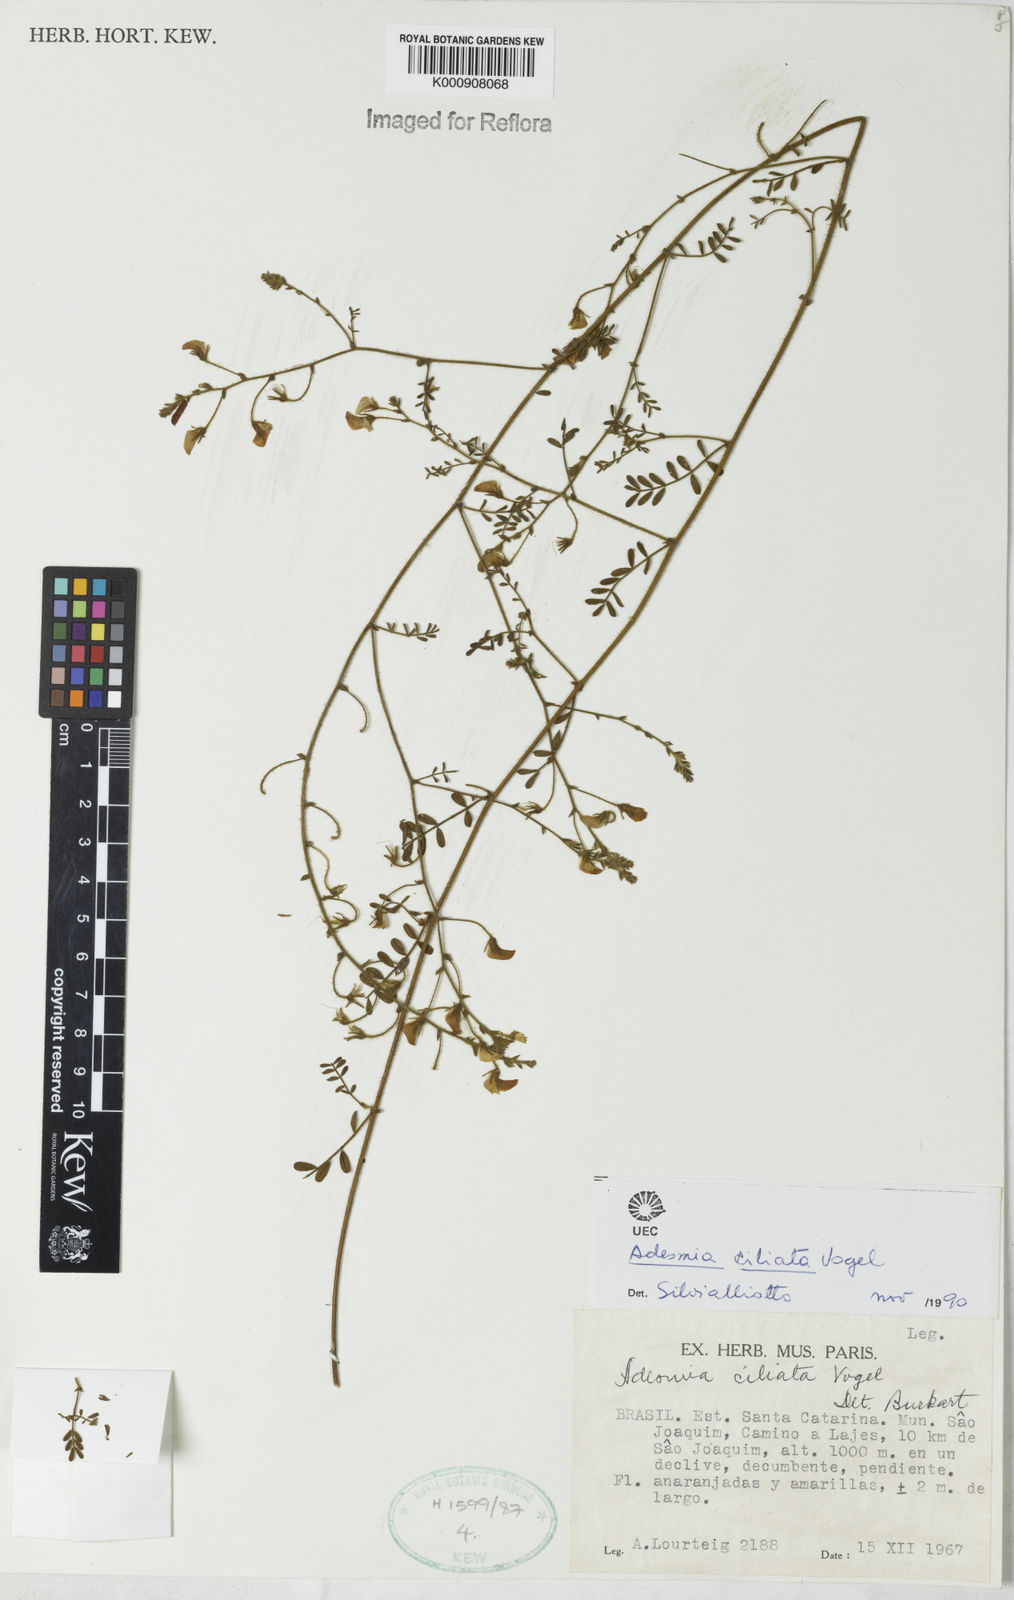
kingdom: Plantae
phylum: Tracheophyta
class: Magnoliopsida
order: Fabales
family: Fabaceae
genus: Adesmia
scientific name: Adesmia ciliata
